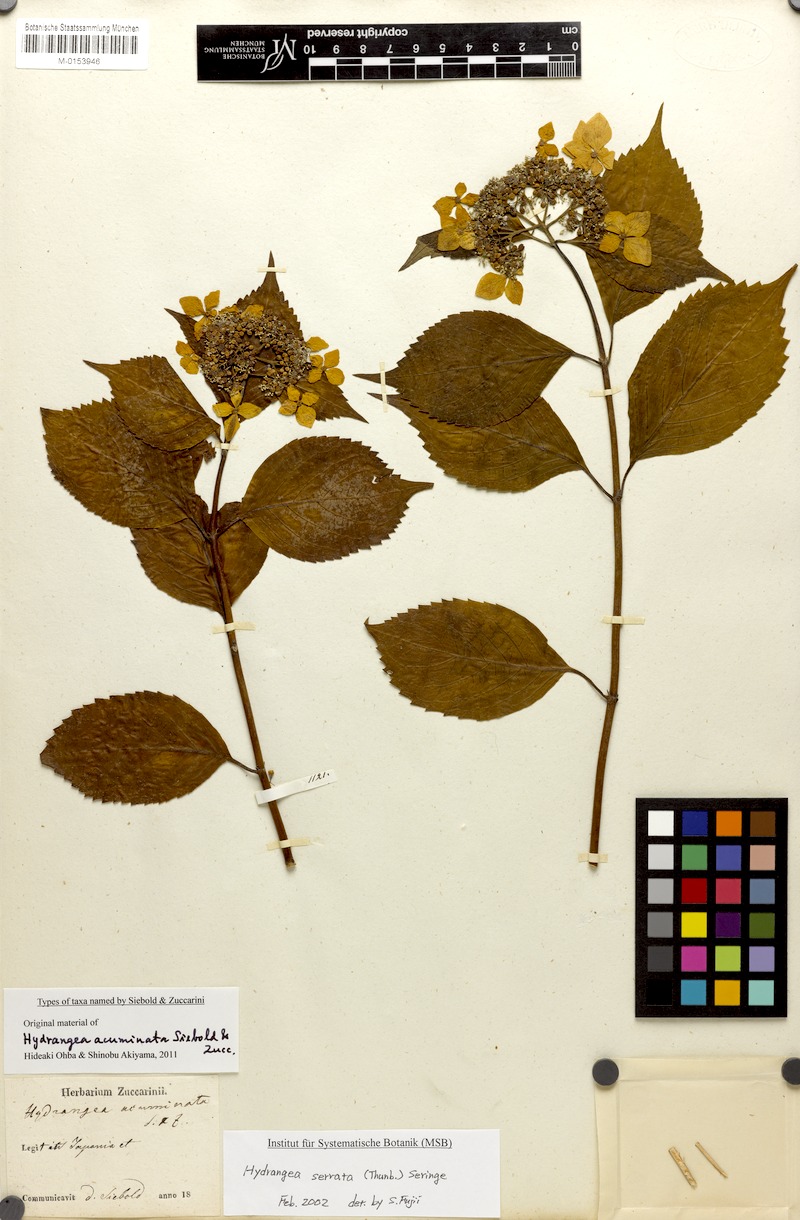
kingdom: Plantae
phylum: Tracheophyta
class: Magnoliopsida
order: Cornales
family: Hydrangeaceae
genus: Hydrangea
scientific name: Hydrangea serrata
